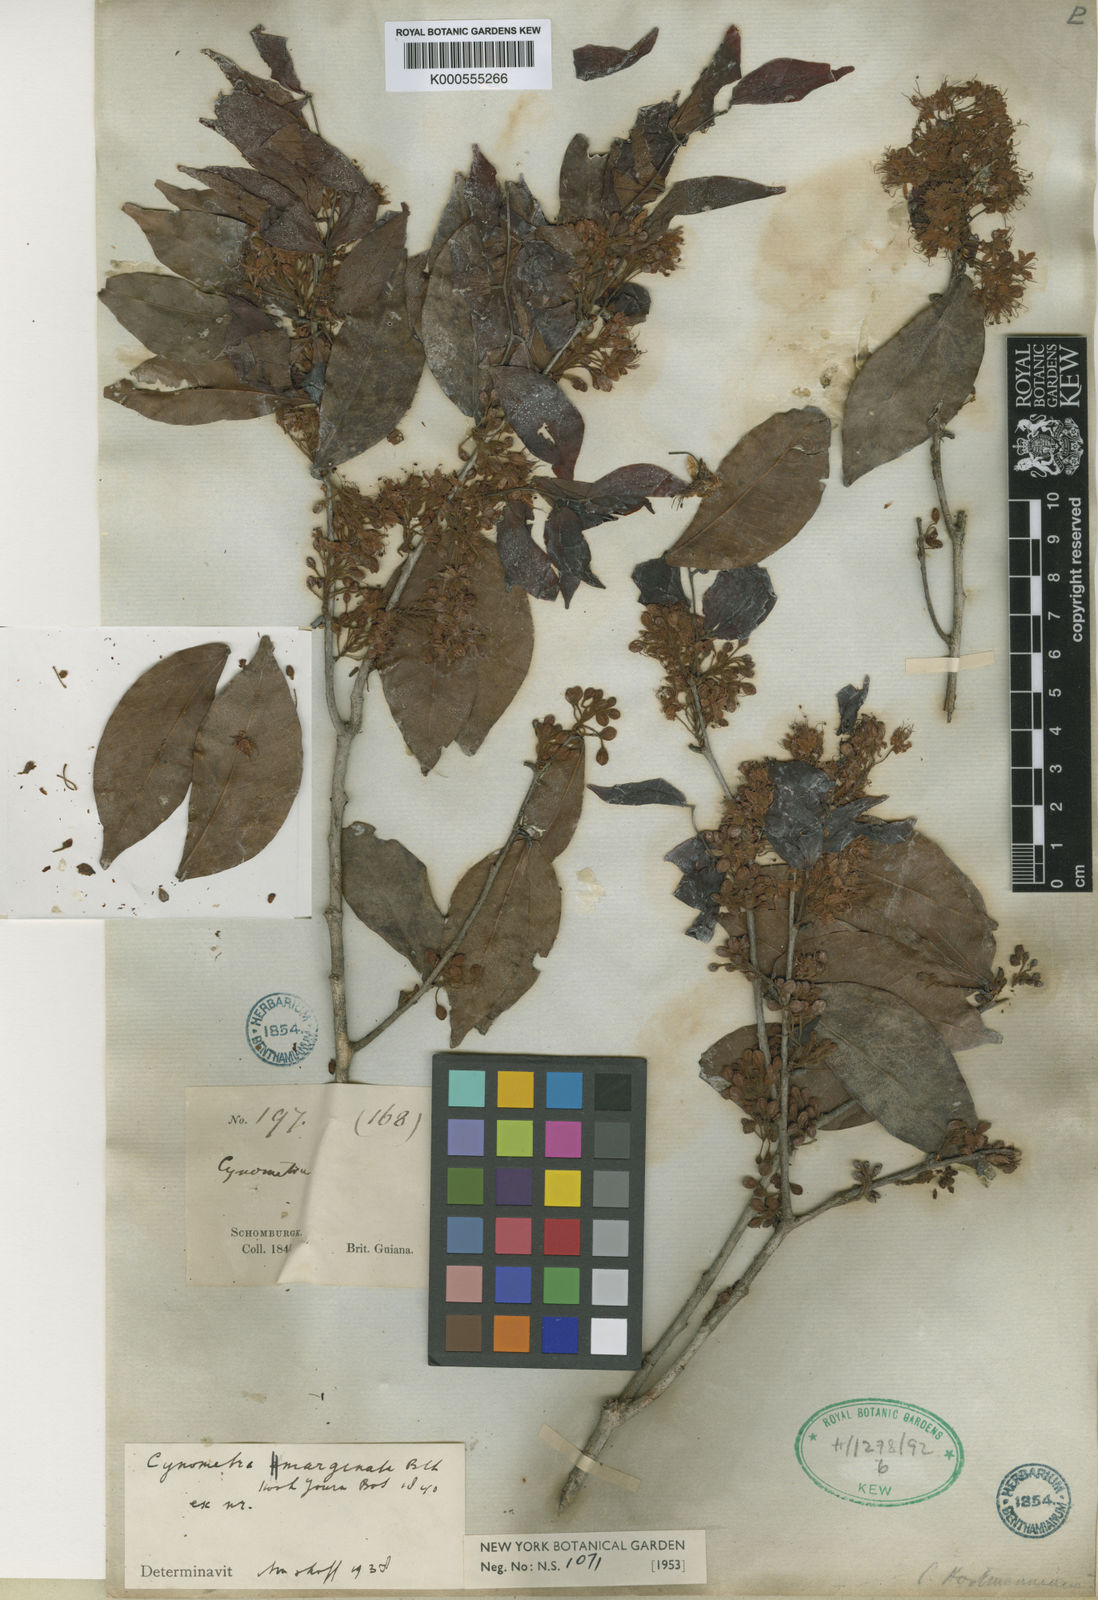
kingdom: Plantae
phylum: Tracheophyta
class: Magnoliopsida
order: Fabales
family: Fabaceae
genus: Cynometra
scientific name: Cynometra marginata
